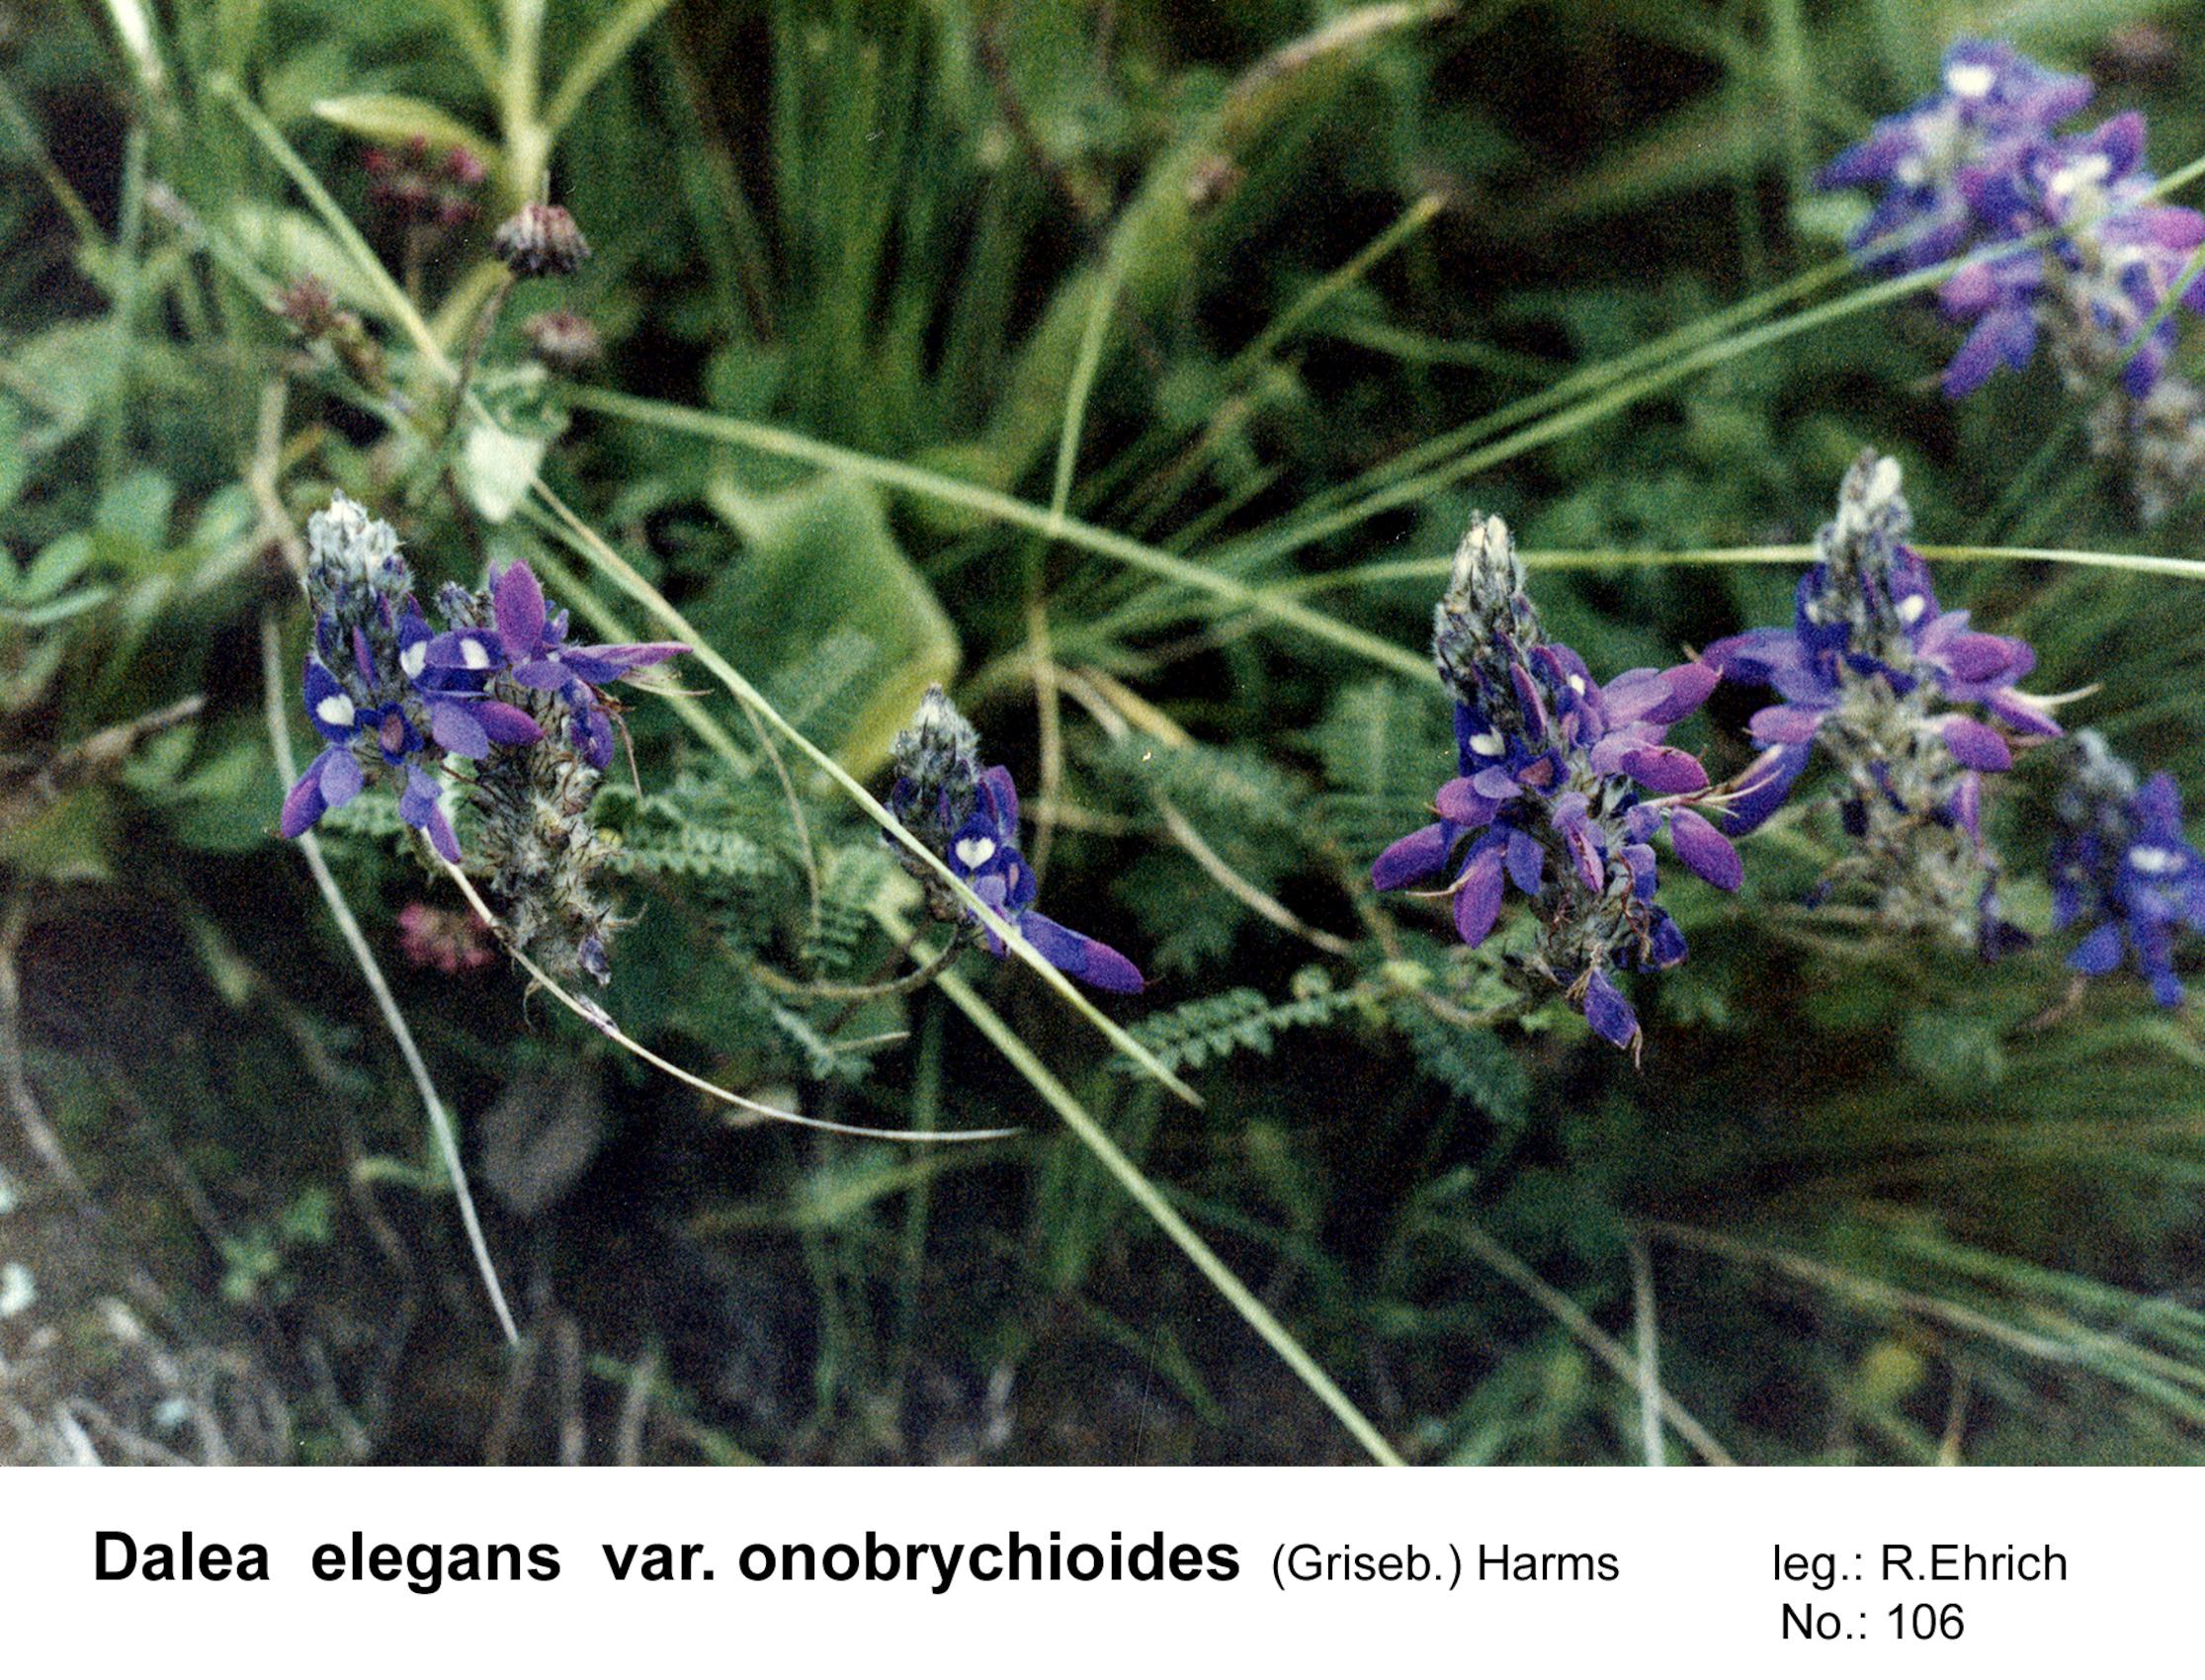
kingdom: Plantae
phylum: Tracheophyta
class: Magnoliopsida
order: Fabales
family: Fabaceae
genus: Dalea
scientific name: Dalea elegans
